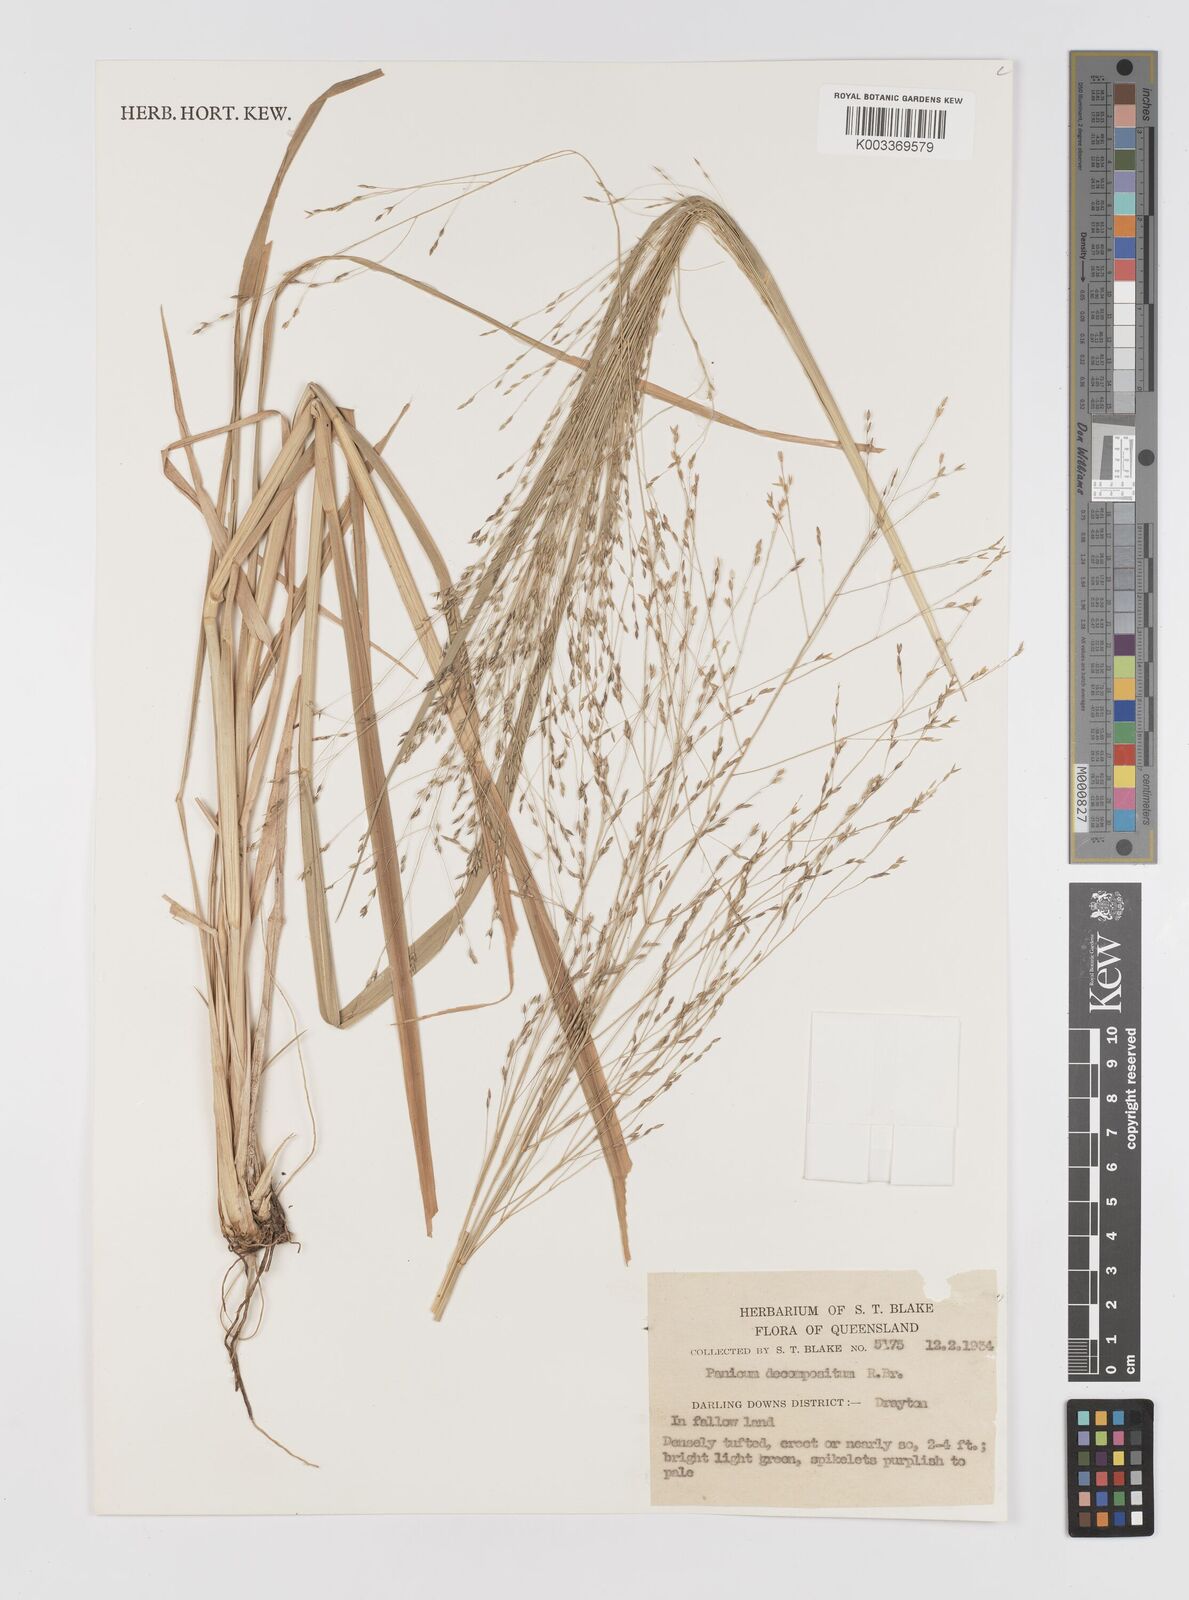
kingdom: Plantae
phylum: Tracheophyta
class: Liliopsida
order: Poales
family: Poaceae
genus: Panicum
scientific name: Panicum decompositum
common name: Australian millet
